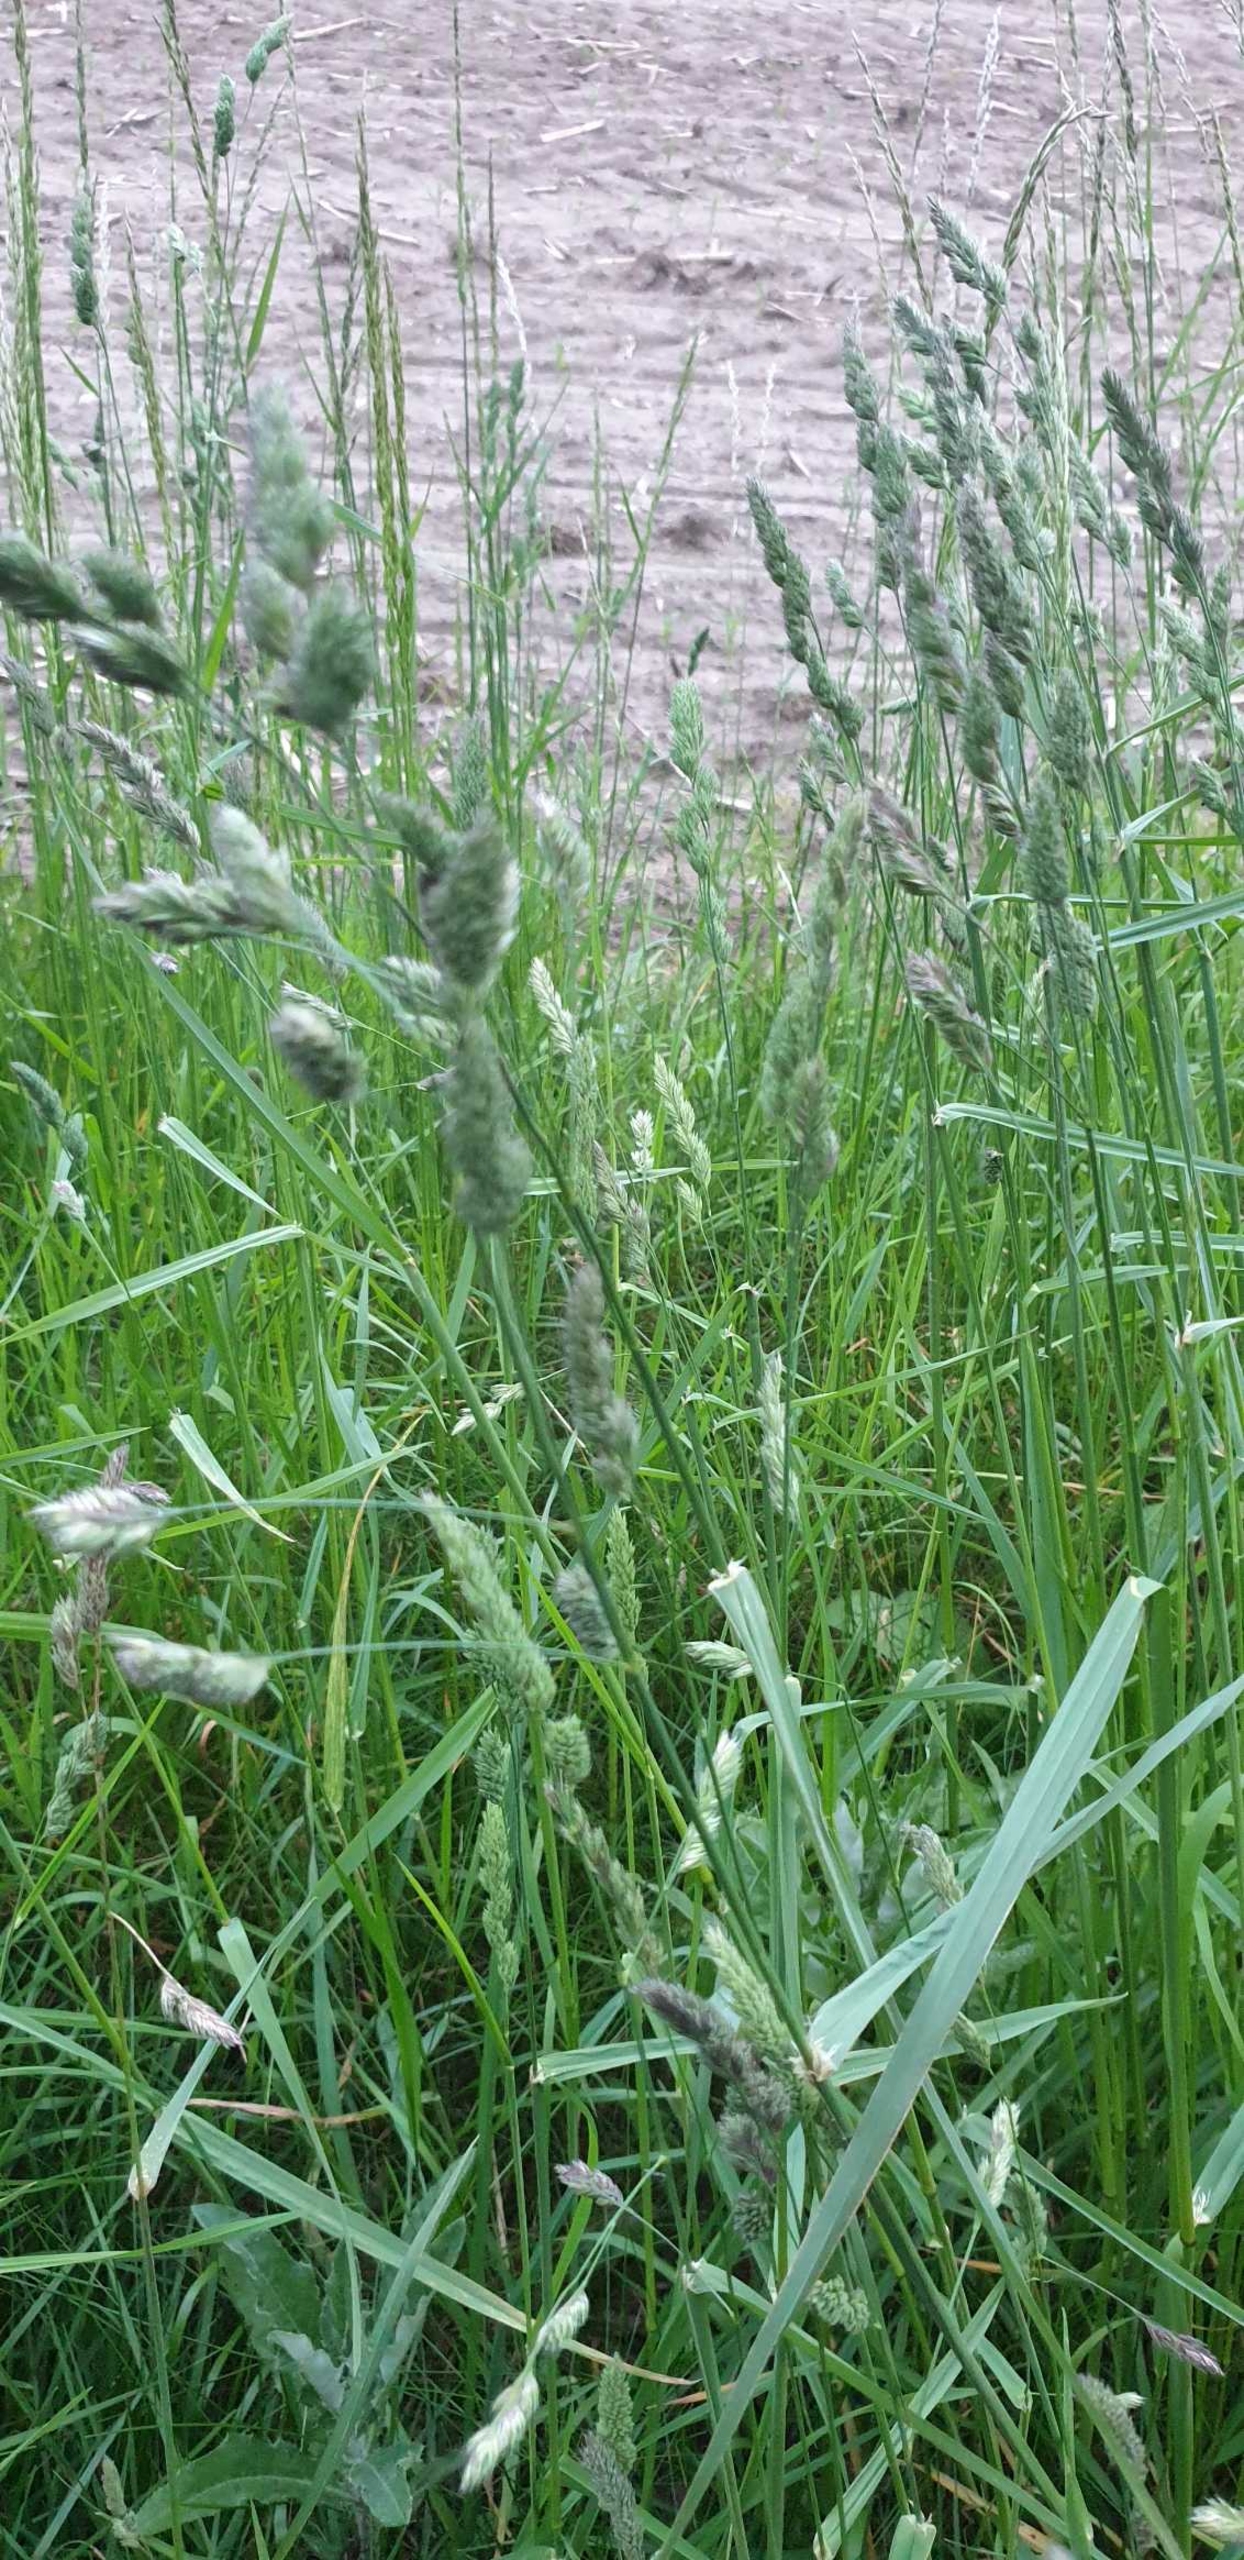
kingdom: Plantae
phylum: Tracheophyta
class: Liliopsida
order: Poales
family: Poaceae
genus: Dactylis
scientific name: Dactylis glomerata
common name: Almindelig hundegræs
